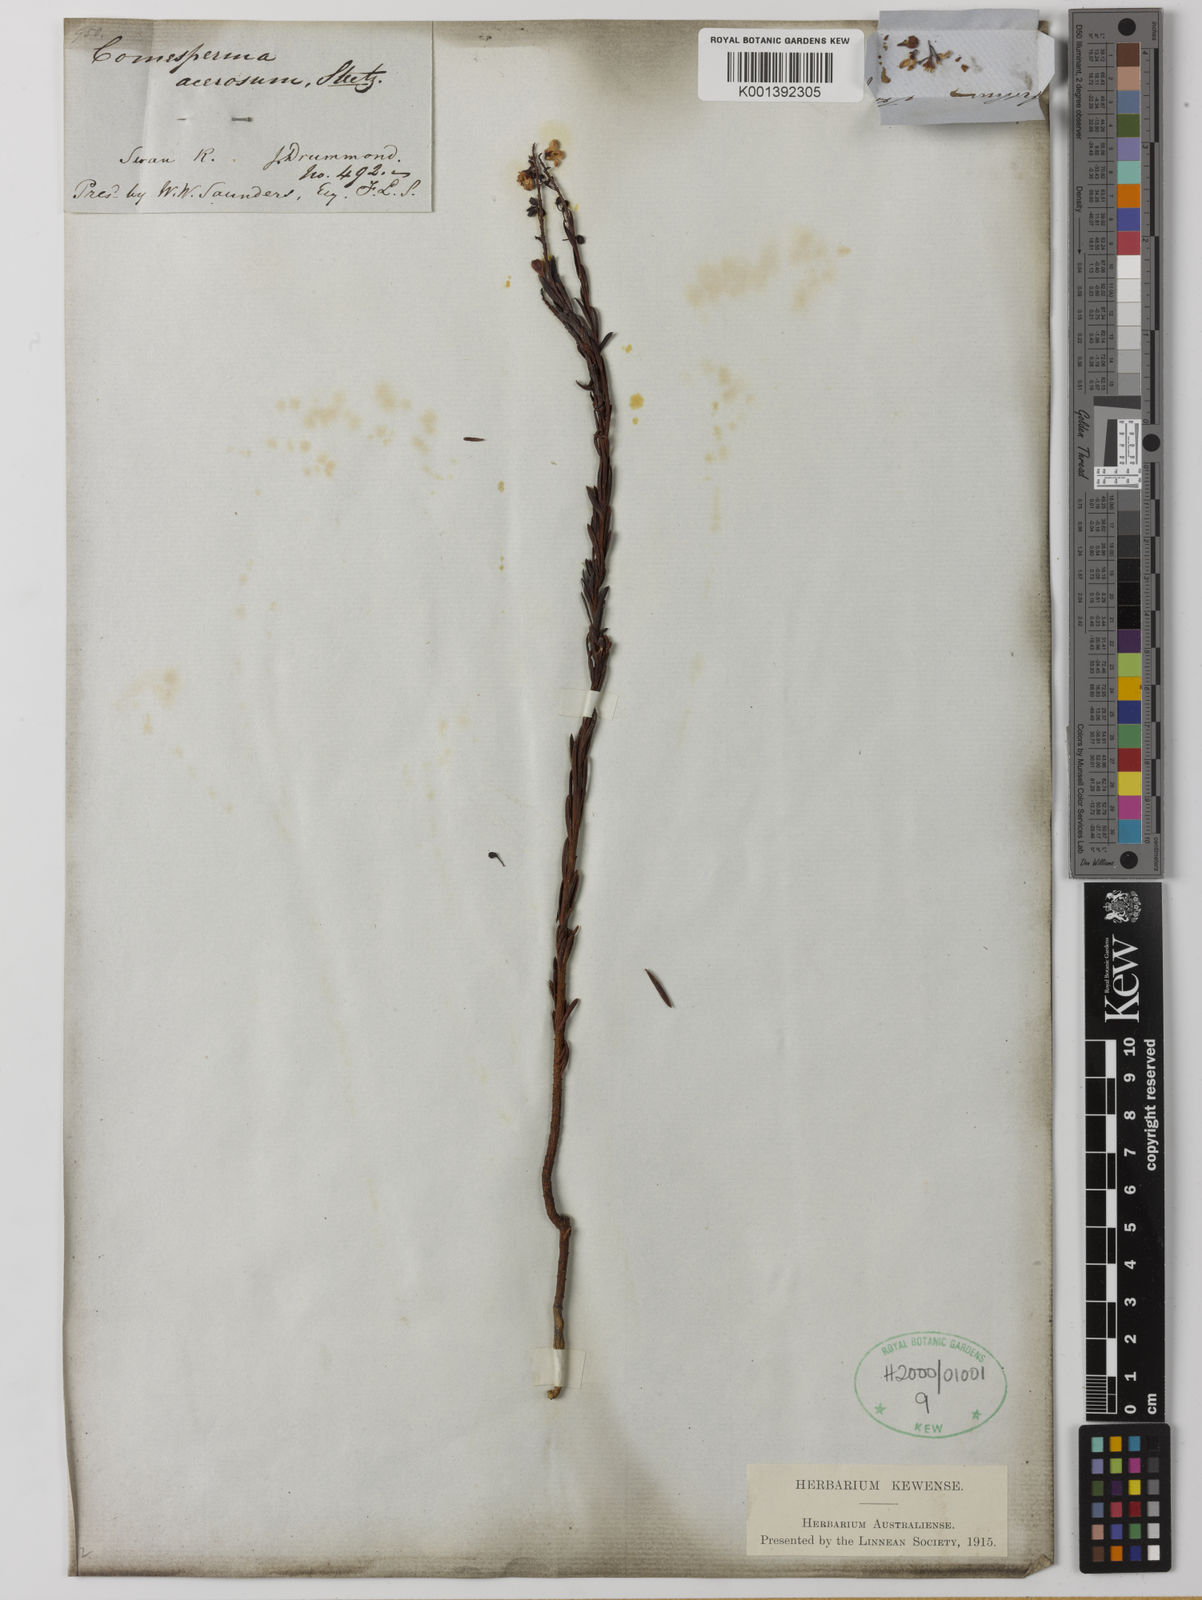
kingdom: Plantae
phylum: Tracheophyta
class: Magnoliopsida
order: Fabales
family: Polygalaceae
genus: Comesperma
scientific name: Comesperma acerosum
